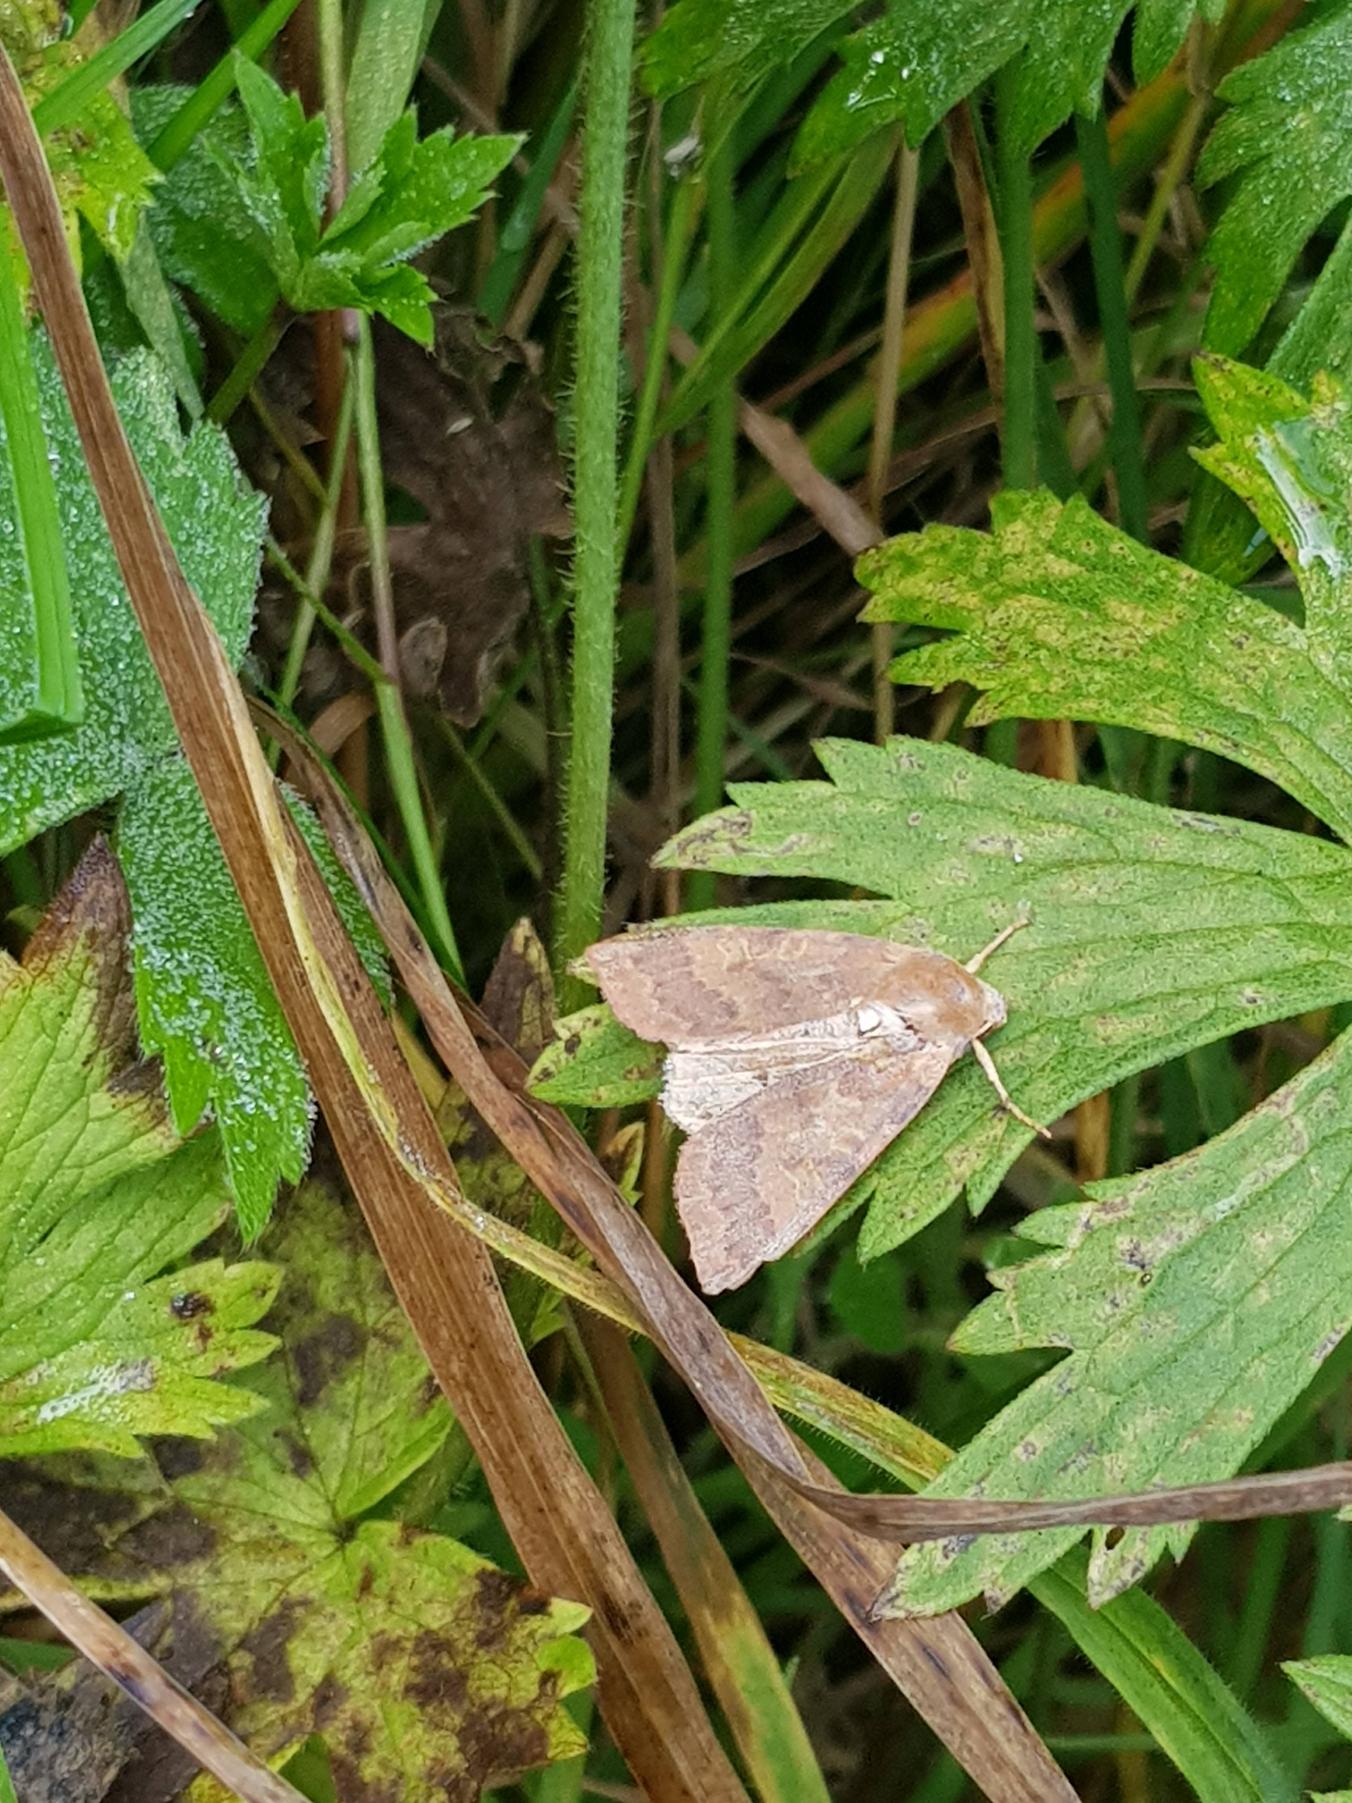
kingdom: Animalia
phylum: Arthropoda
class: Insecta
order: Lepidoptera
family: Noctuidae
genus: Agrochola
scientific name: Agrochola Anchoscelis helvola
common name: Rød høstugle
